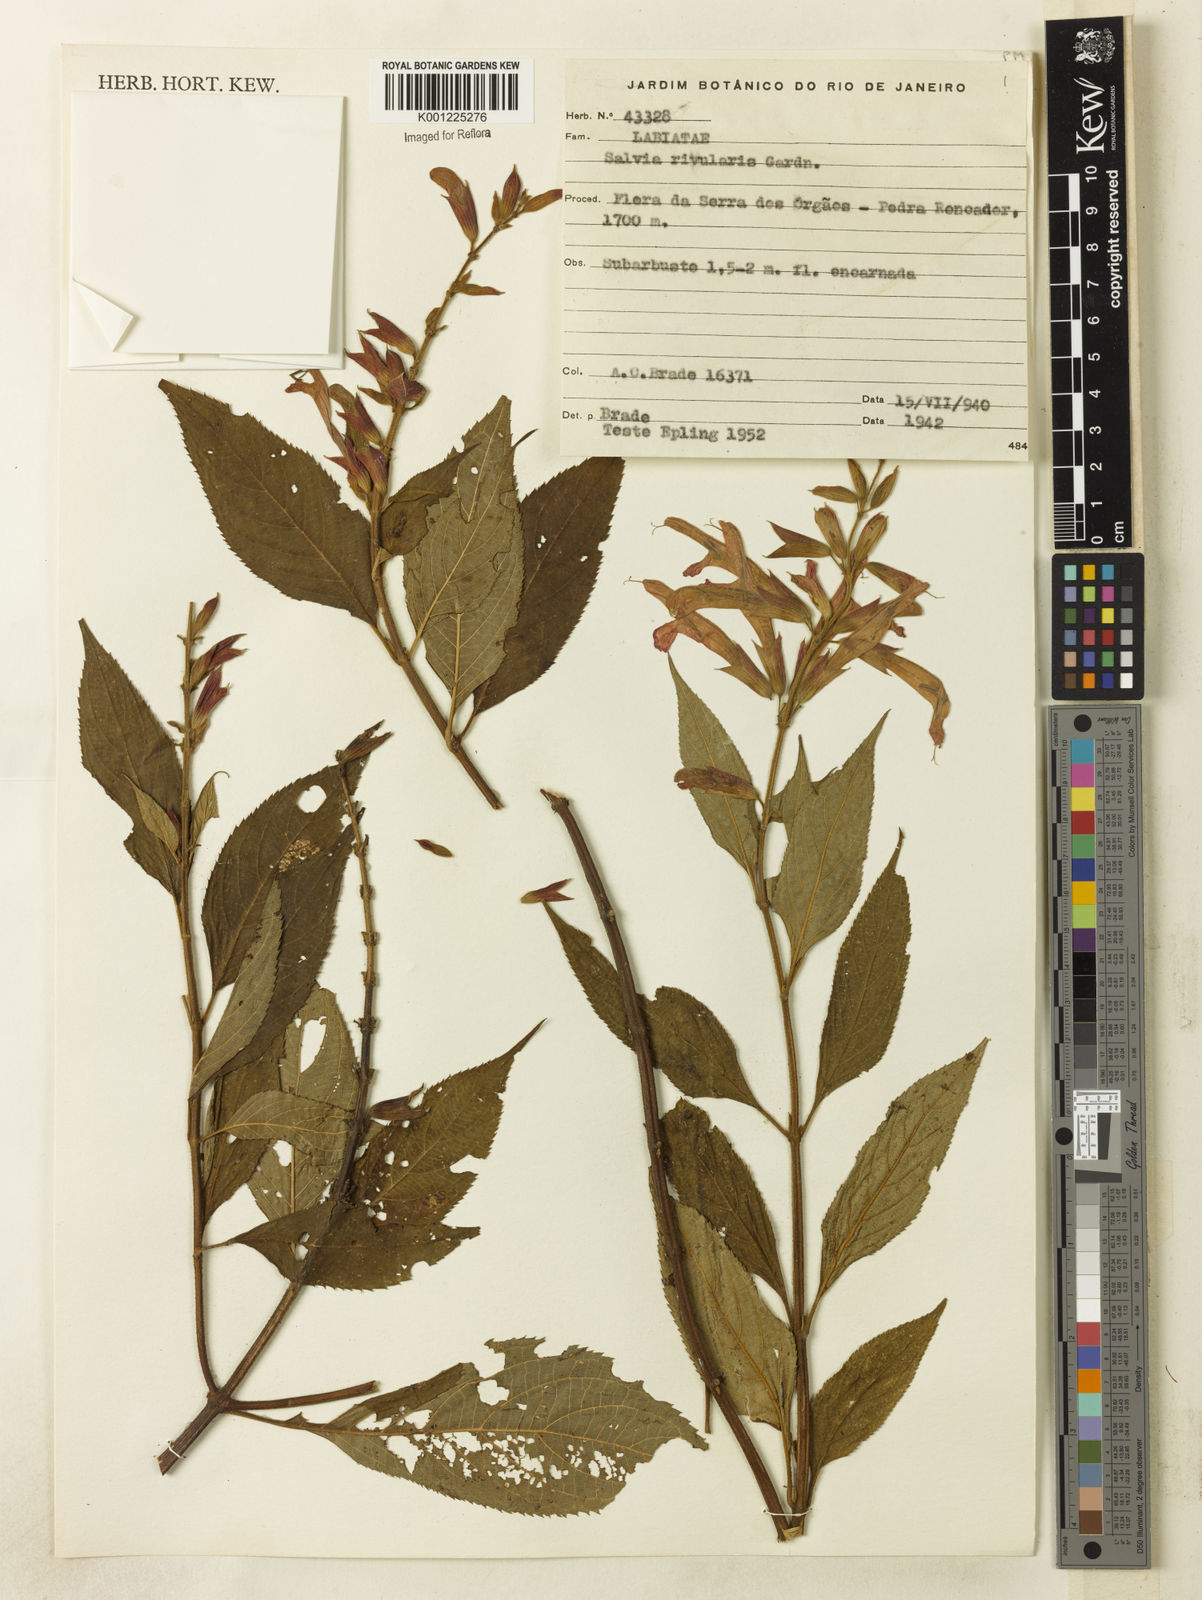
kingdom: Plantae
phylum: Tracheophyta
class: Magnoliopsida
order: Lamiales
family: Lamiaceae
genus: Salvia
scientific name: Salvia rivularis
